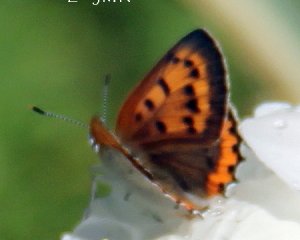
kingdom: Animalia
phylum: Arthropoda
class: Insecta
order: Lepidoptera
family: Sesiidae
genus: Sesia
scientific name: Sesia Lycaena hyllus
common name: Bronze Copper
